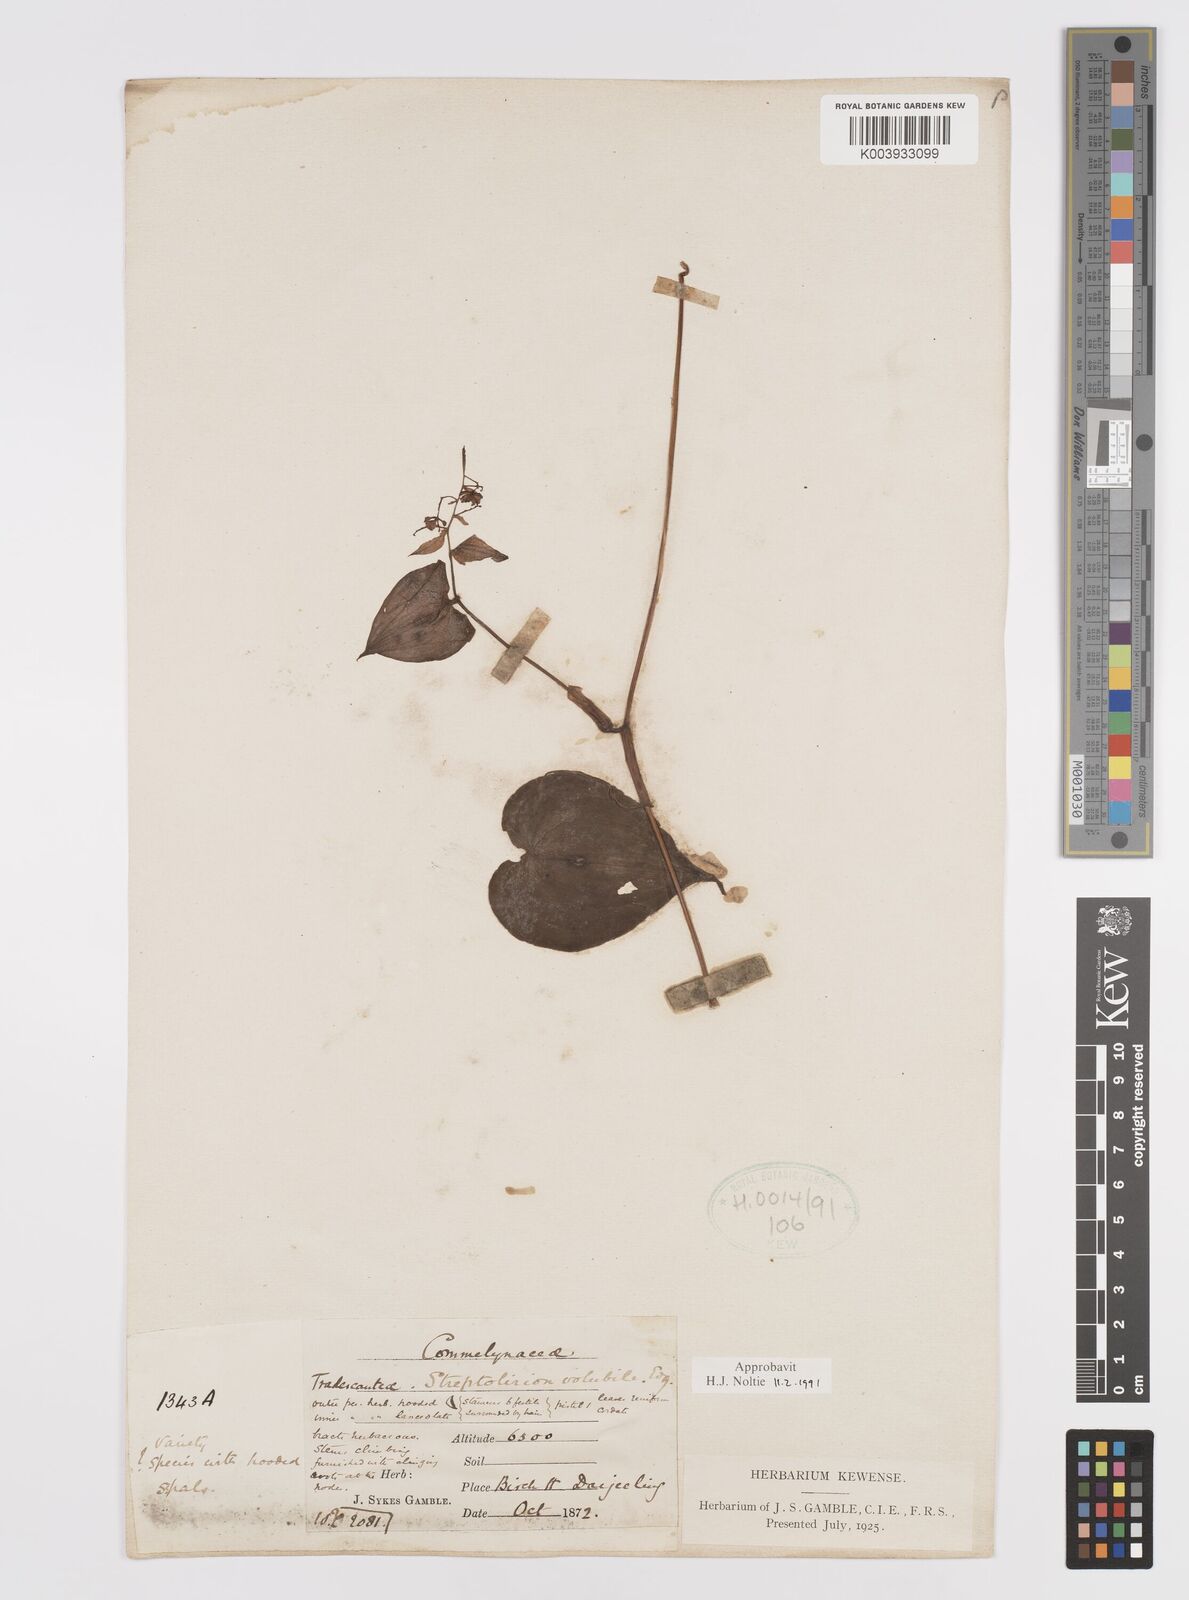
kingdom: Plantae
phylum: Tracheophyta
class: Liliopsida
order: Commelinales
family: Commelinaceae
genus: Streptolirion
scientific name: Streptolirion volubile
